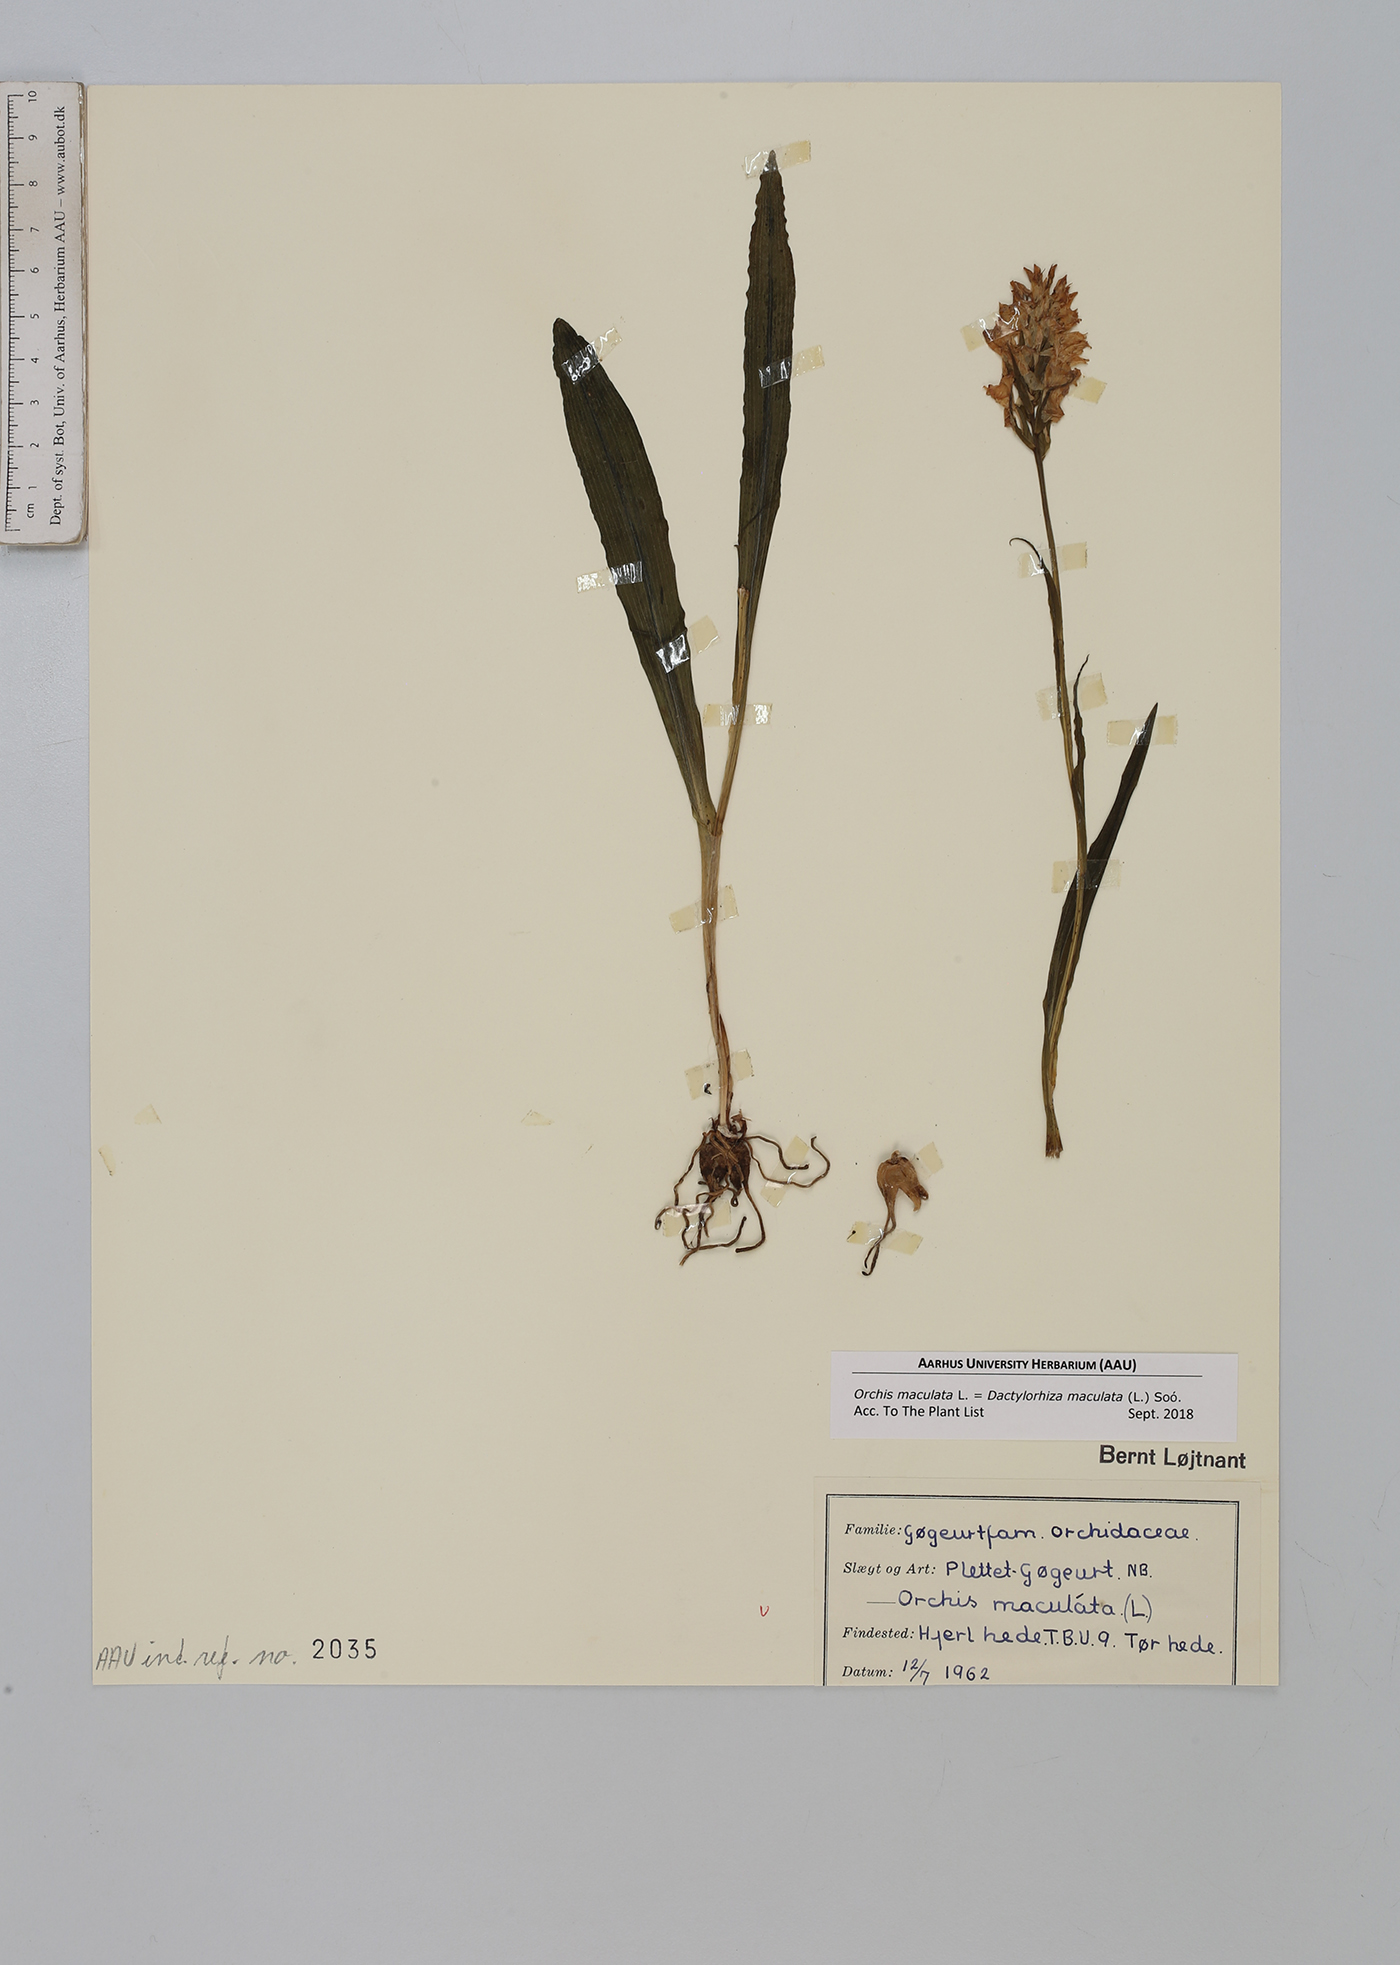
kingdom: Plantae
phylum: Tracheophyta
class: Liliopsida
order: Asparagales
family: Orchidaceae
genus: Dactylorhiza
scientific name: Dactylorhiza maculata
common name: Heath spotted-orchid
